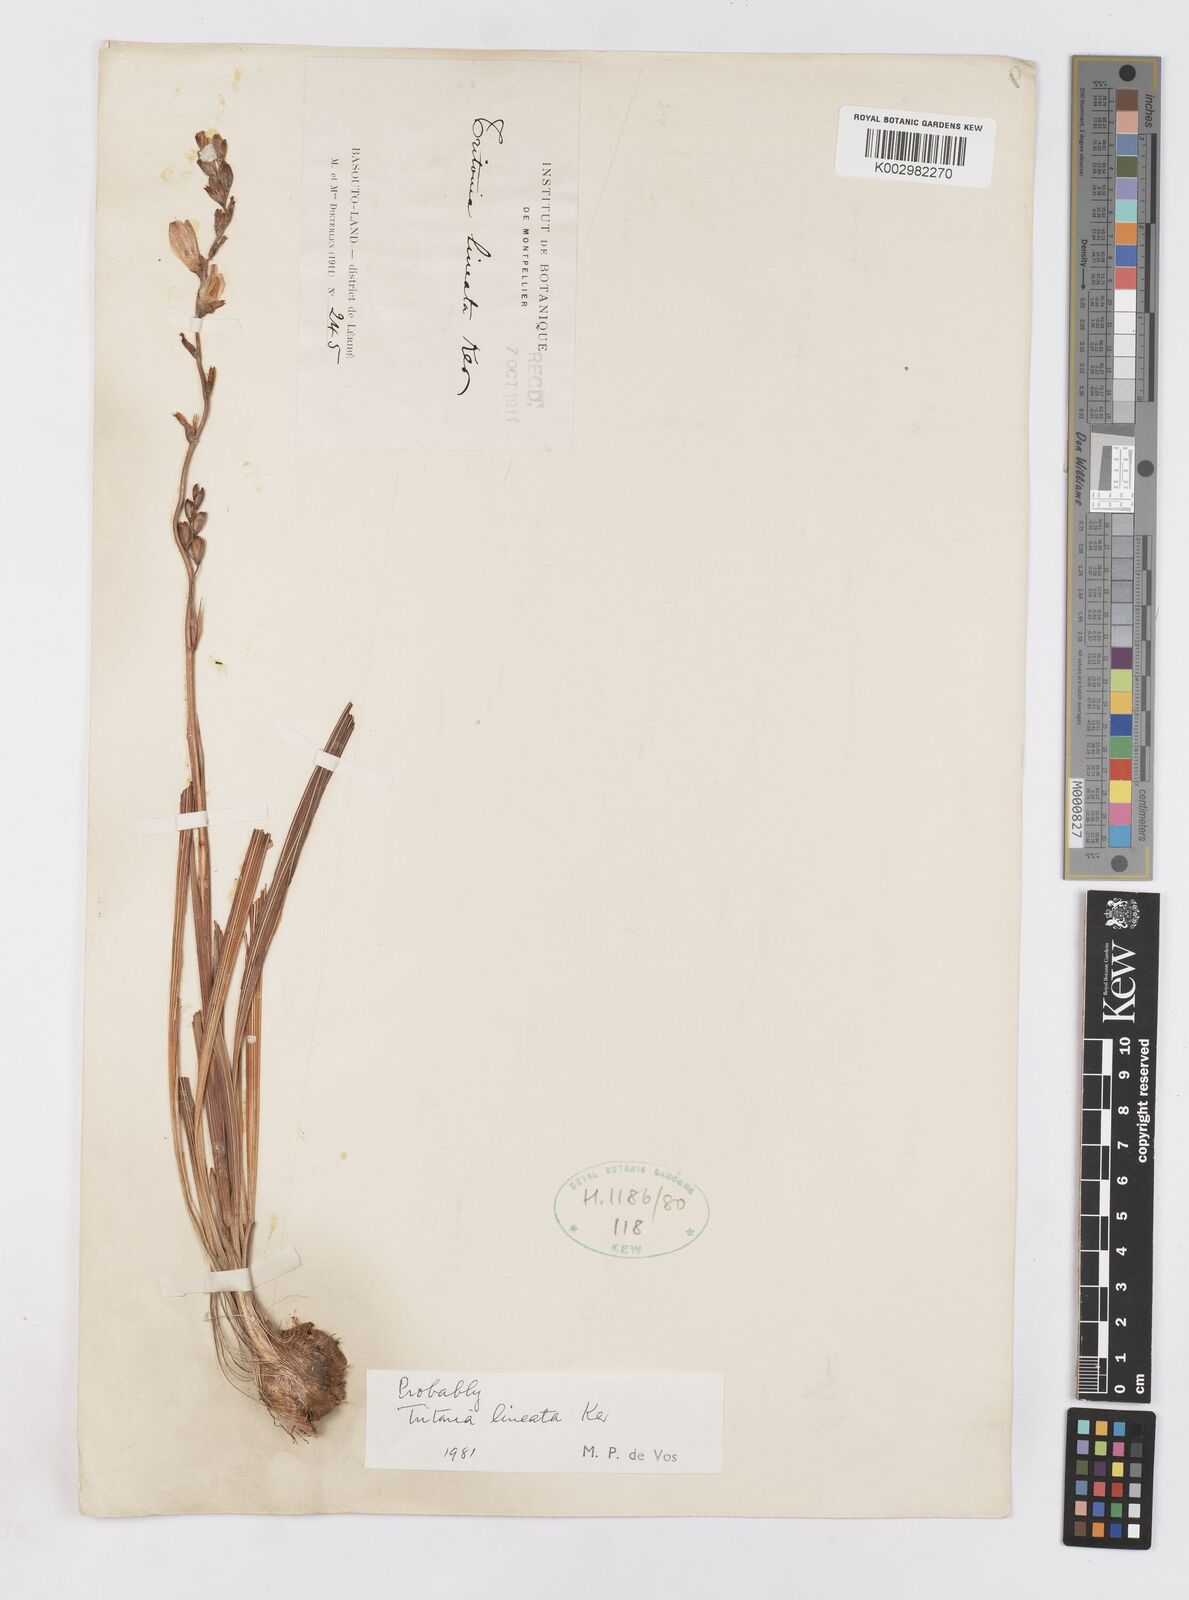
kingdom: Plantae
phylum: Tracheophyta
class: Liliopsida
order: Asparagales
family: Iridaceae
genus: Tritonia
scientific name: Tritonia gladiolaris
